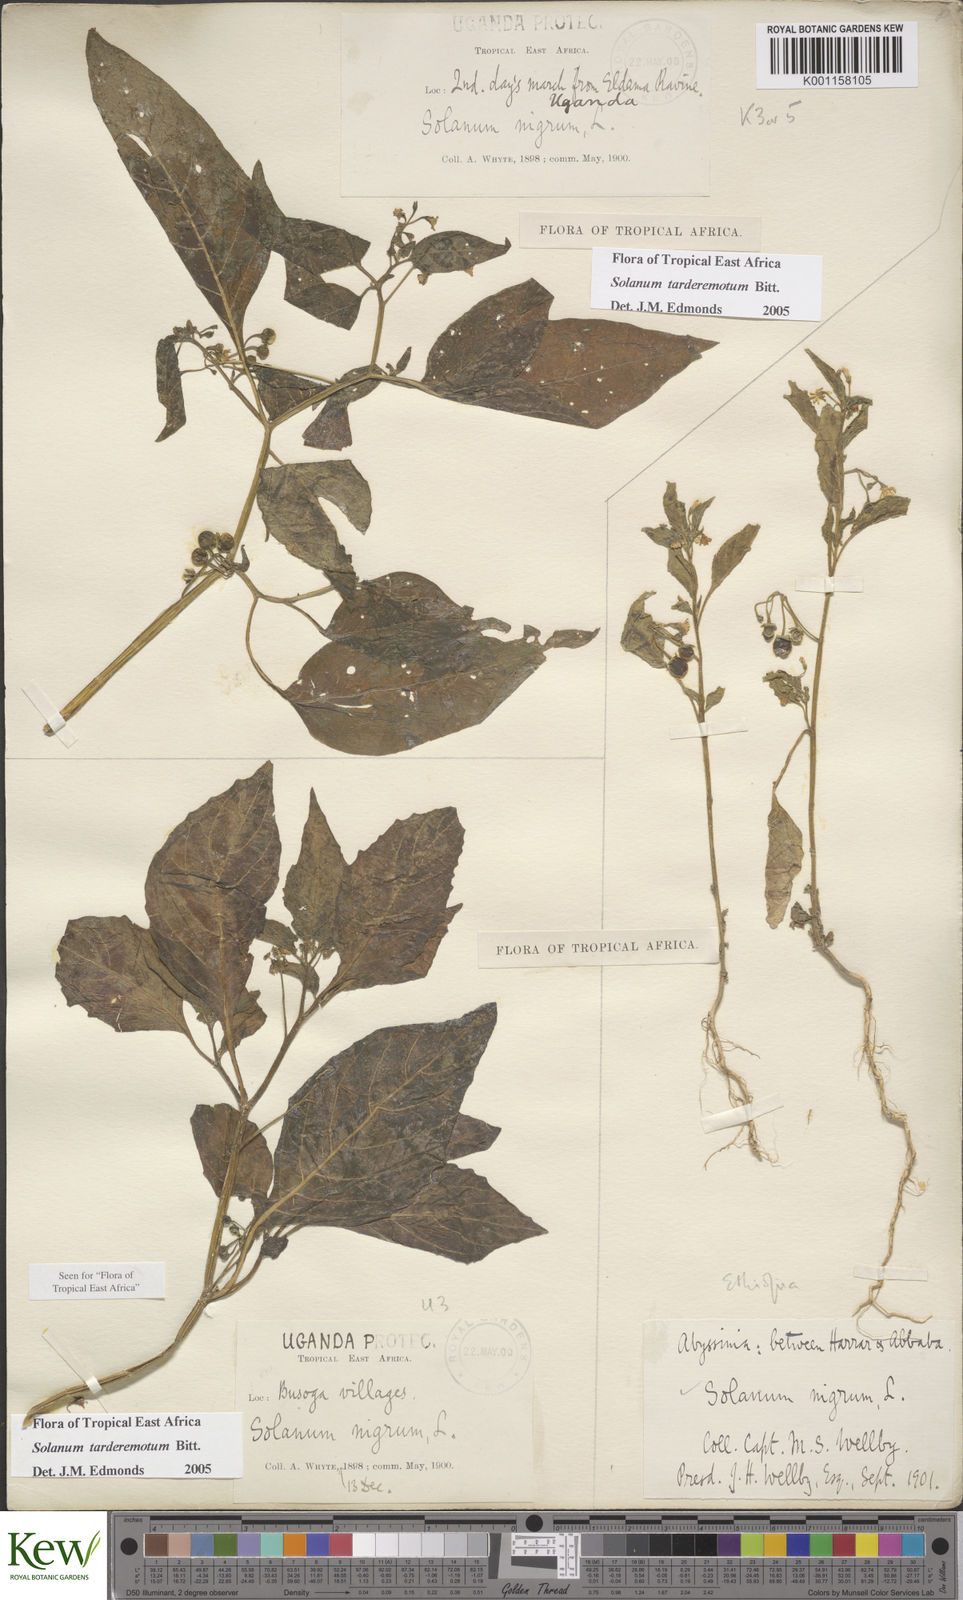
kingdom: Plantae
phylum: Tracheophyta
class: Magnoliopsida
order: Solanales
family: Solanaceae
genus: Solanum
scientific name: Solanum tarderemotum
